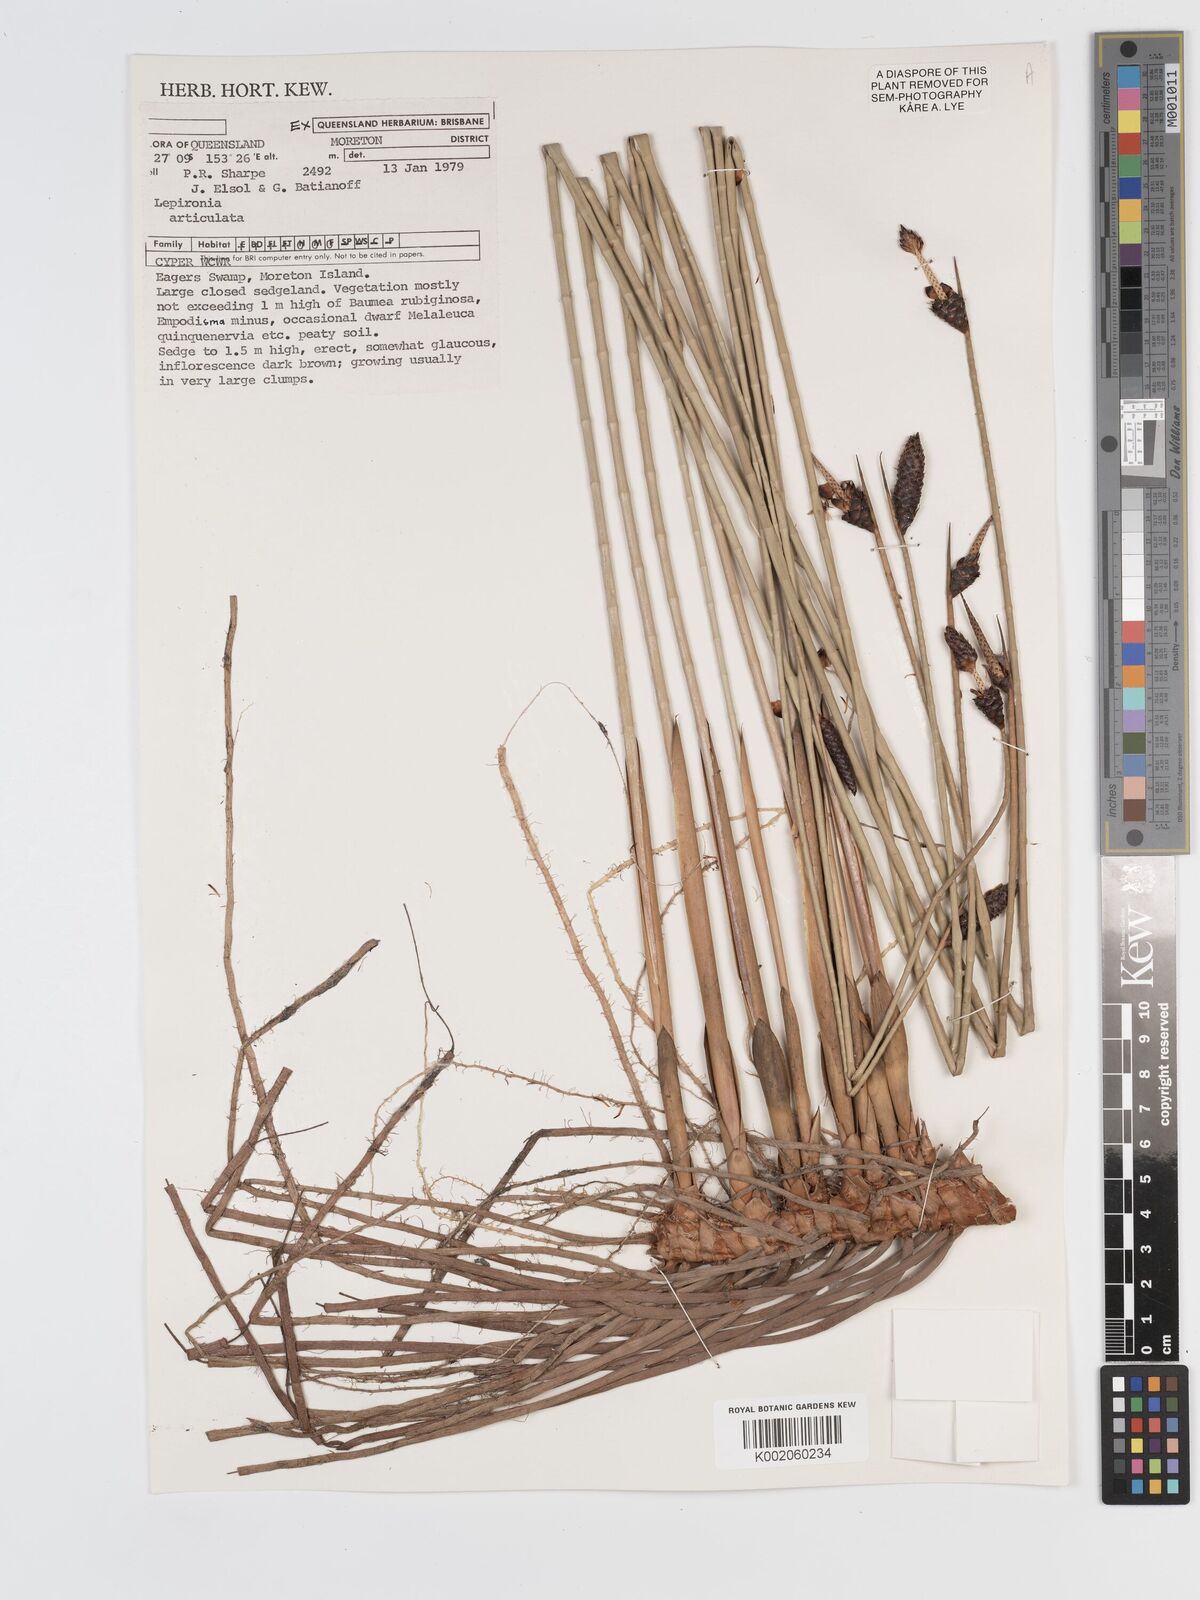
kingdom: Plantae
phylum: Tracheophyta
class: Liliopsida
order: Poales
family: Cyperaceae
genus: Lepironia
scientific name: Lepironia articulata
